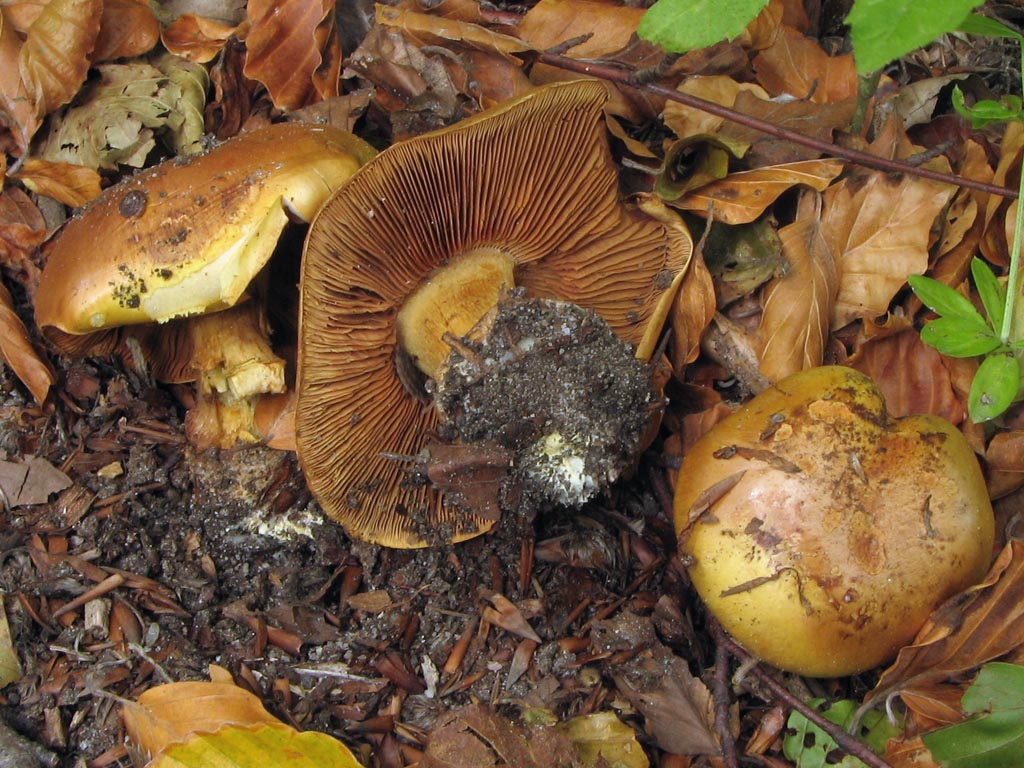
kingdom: Fungi
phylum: Basidiomycota
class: Agaricomycetes
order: Agaricales
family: Cortinariaceae
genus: Calonarius
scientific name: Calonarius alcalinophilus
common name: gyldenbrun slørhat
